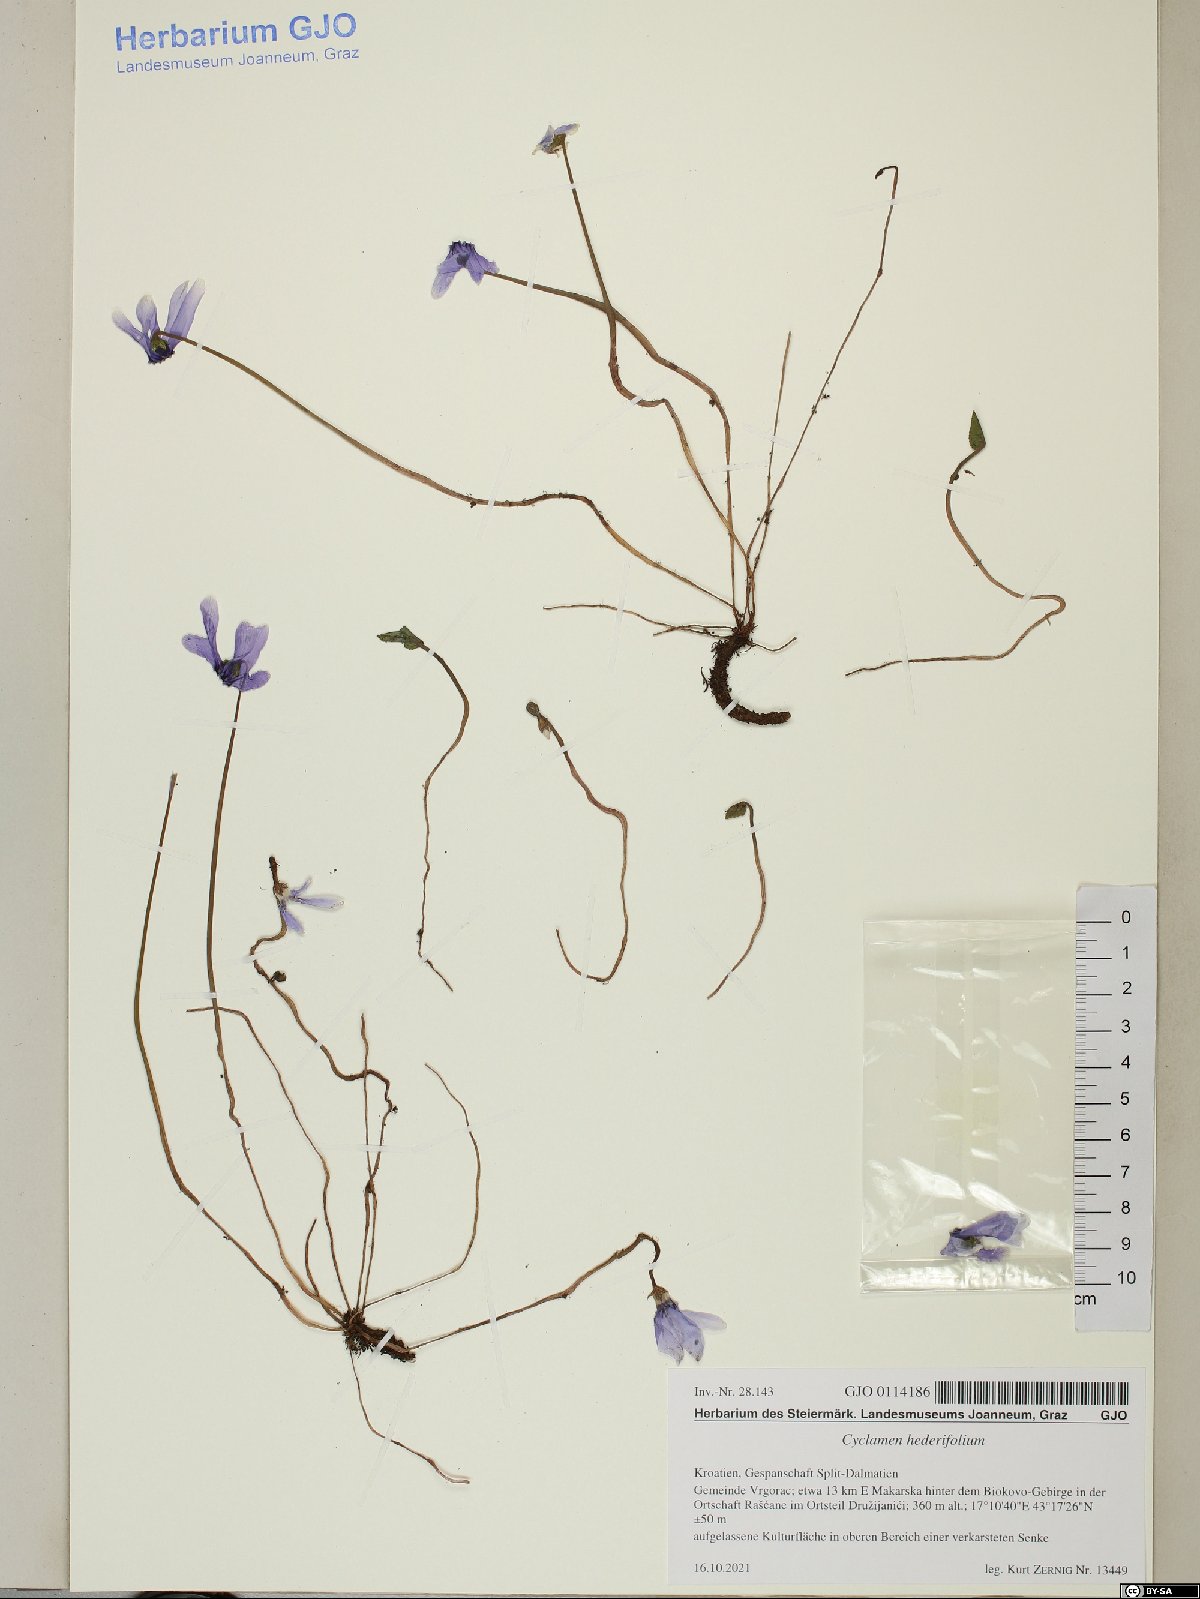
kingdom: Plantae
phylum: Tracheophyta
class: Magnoliopsida
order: Ericales
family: Primulaceae
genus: Cyclamen
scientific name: Cyclamen hederifolium
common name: Sowbread
